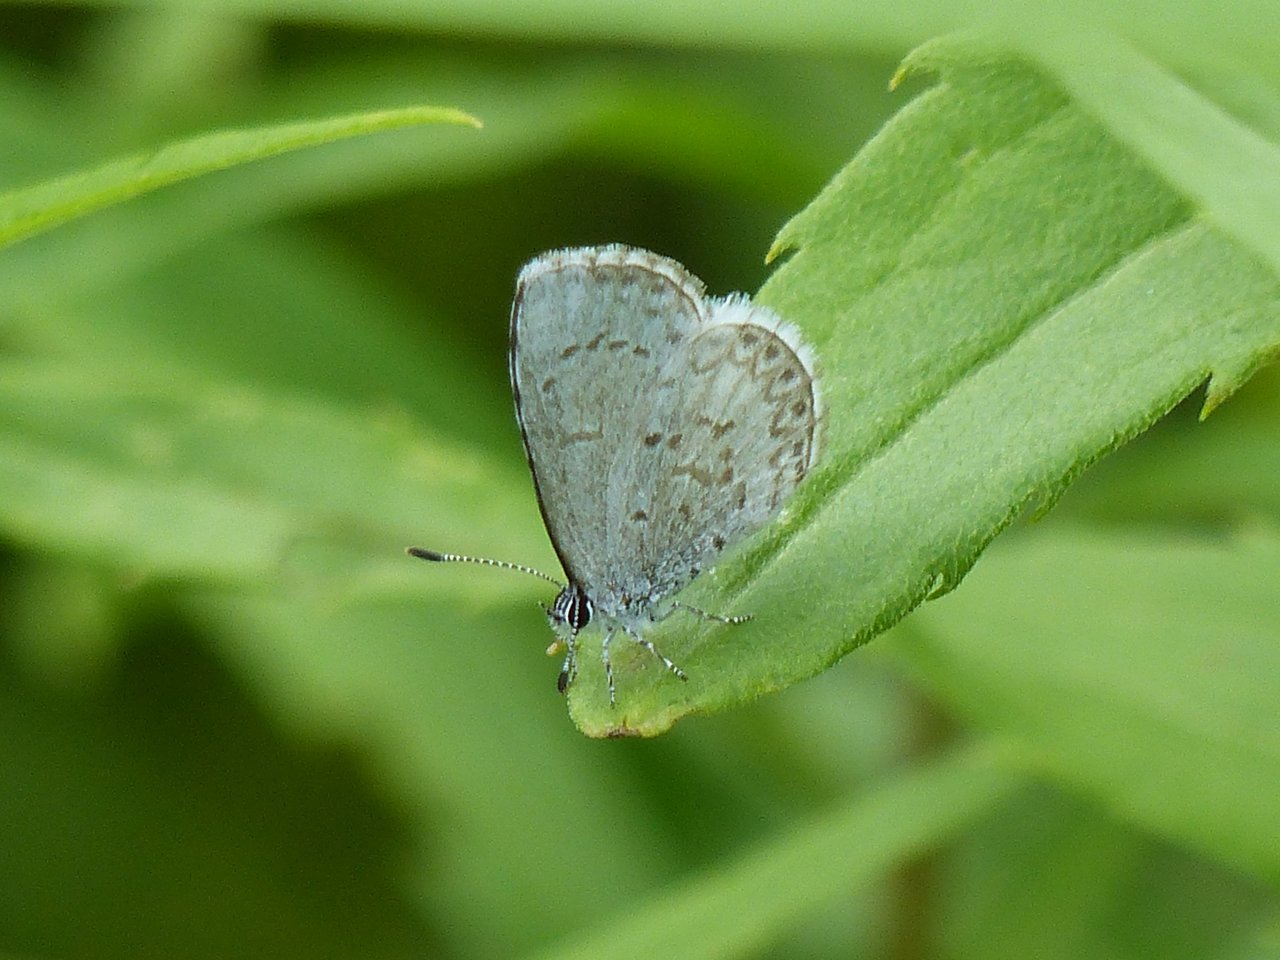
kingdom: Animalia
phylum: Arthropoda
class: Insecta
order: Lepidoptera
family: Lycaenidae
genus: Celastrina
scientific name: Celastrina lucia
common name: Northern Spring Azure
